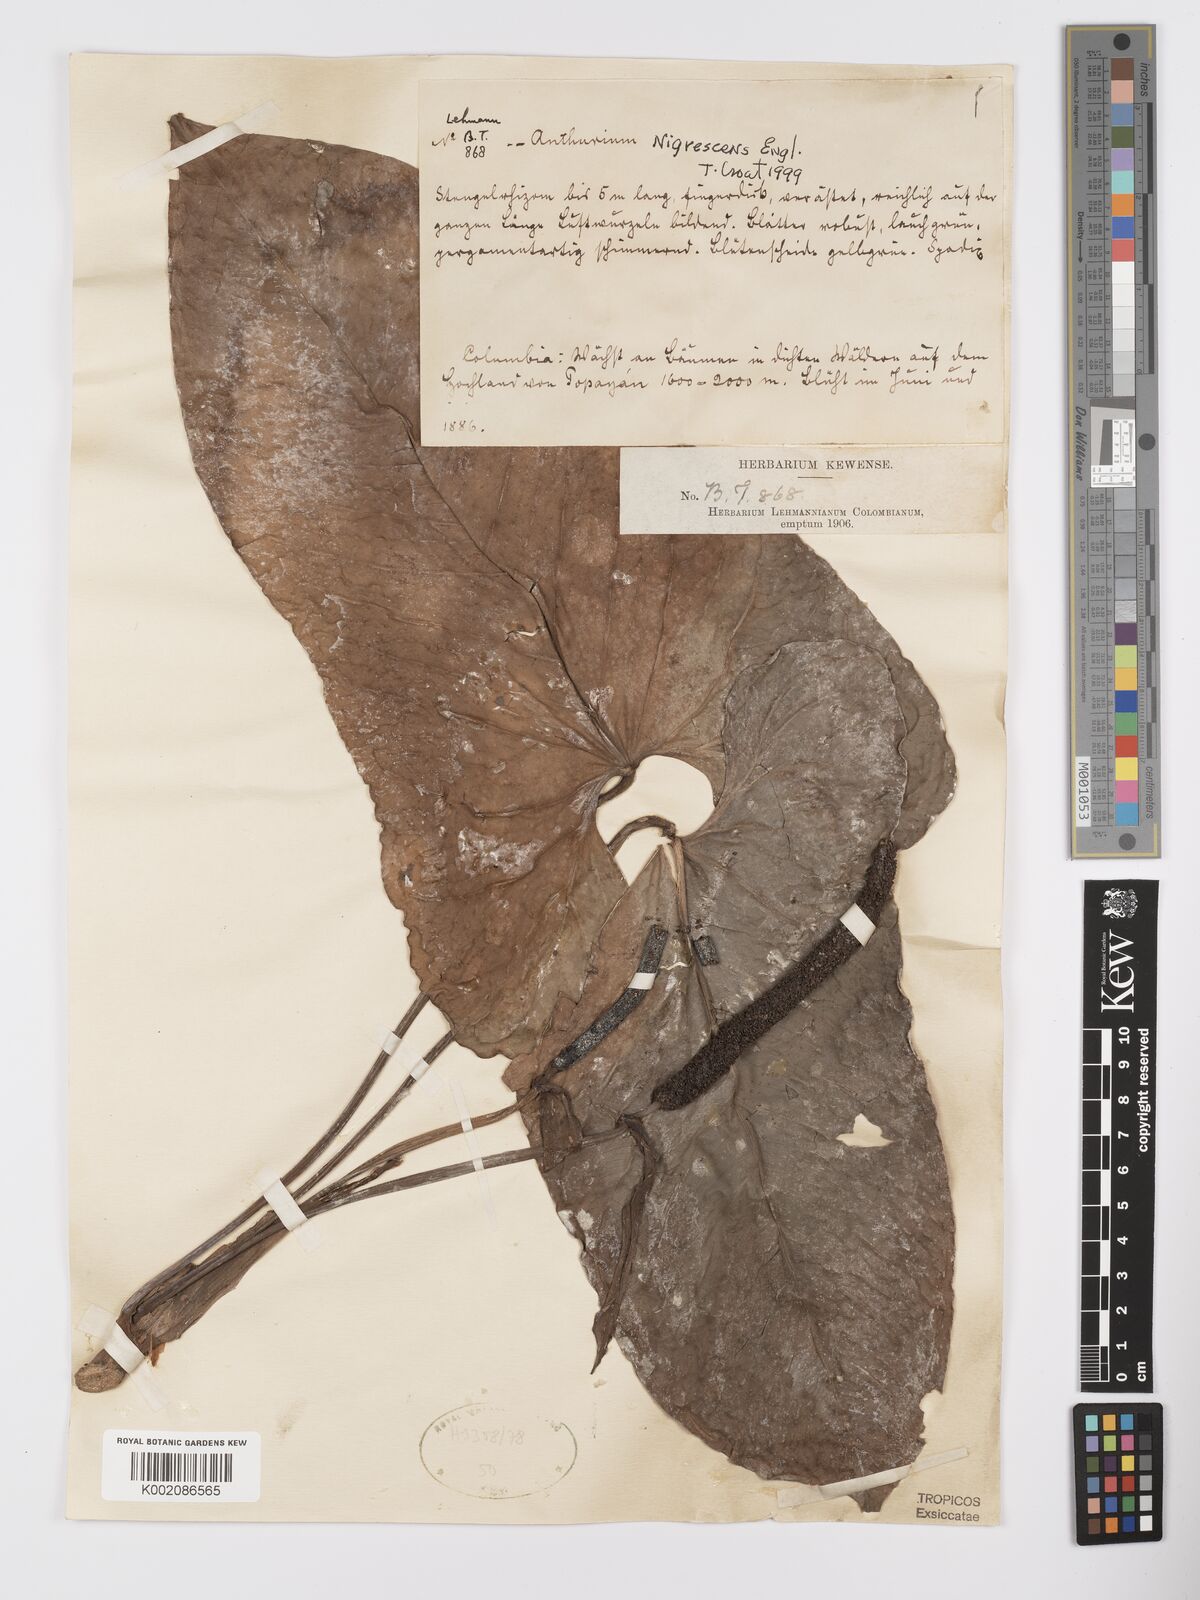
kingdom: Plantae
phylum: Tracheophyta
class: Liliopsida
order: Alismatales
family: Araceae
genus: Anthurium
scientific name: Anthurium nigrescens
